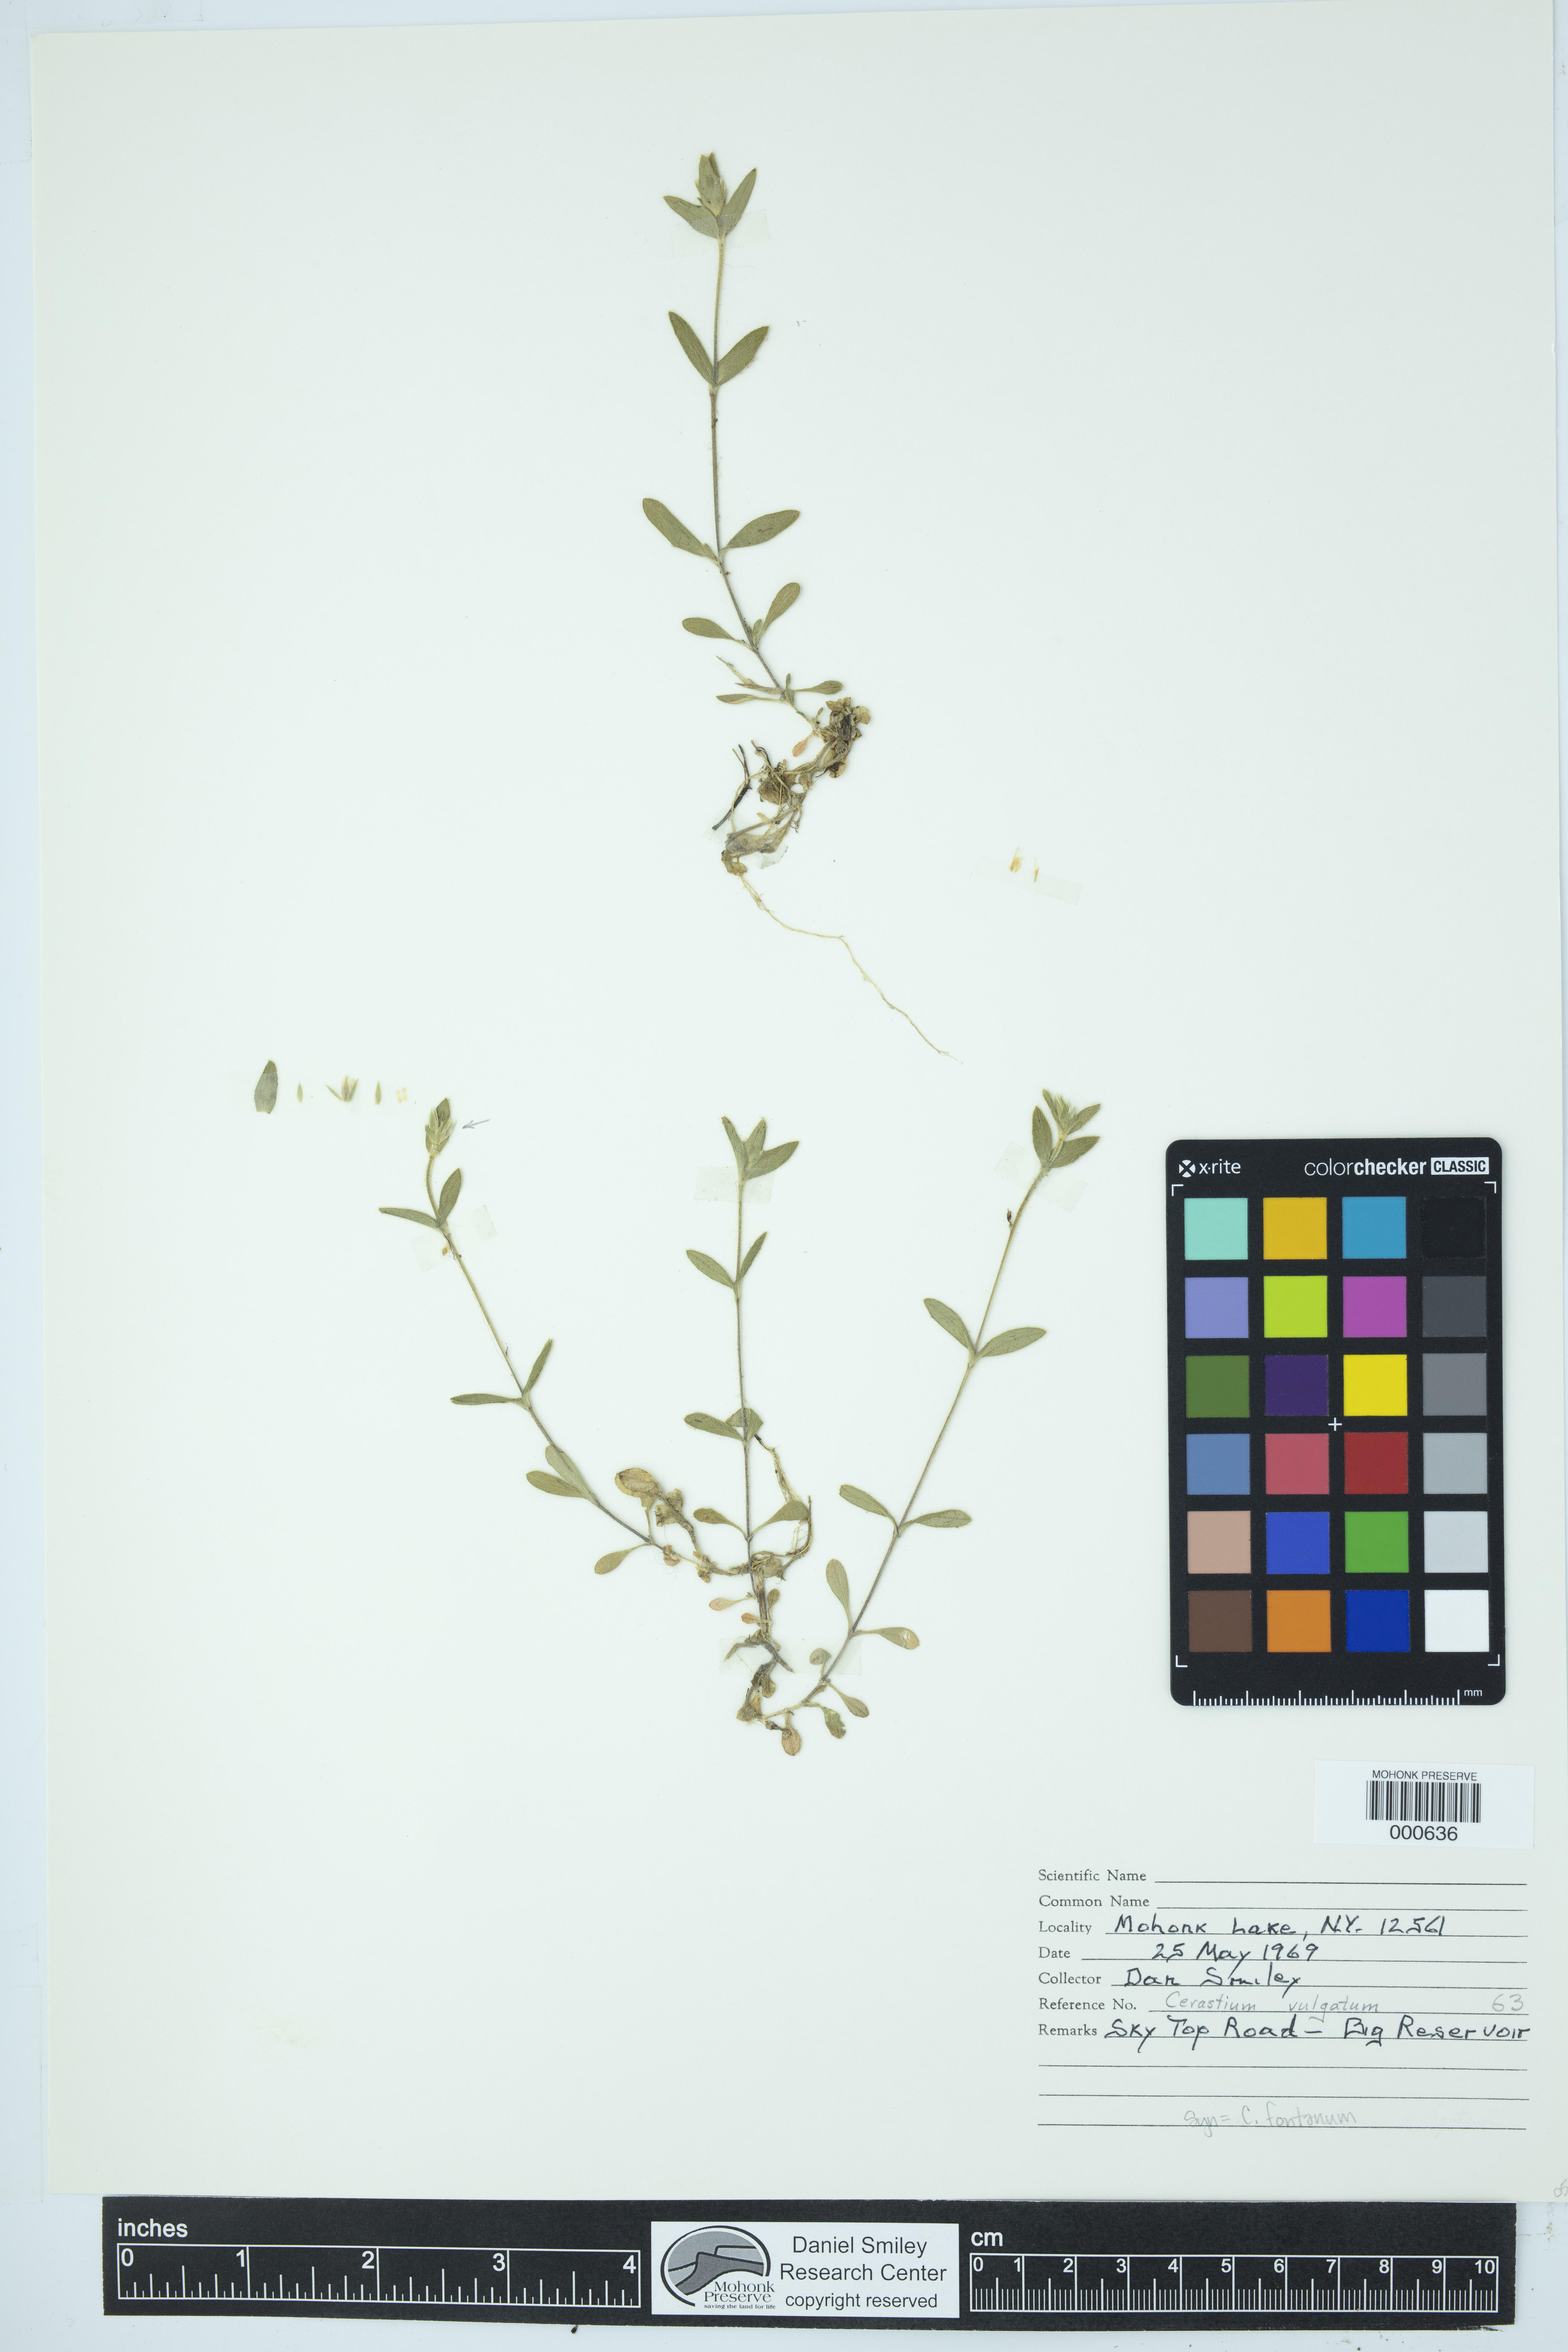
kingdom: Plantae
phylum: Tracheophyta
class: Magnoliopsida
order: Caryophyllales
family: Caryophyllaceae
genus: Cerastium
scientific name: Cerastium fontanum
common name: Common mouse-ear
